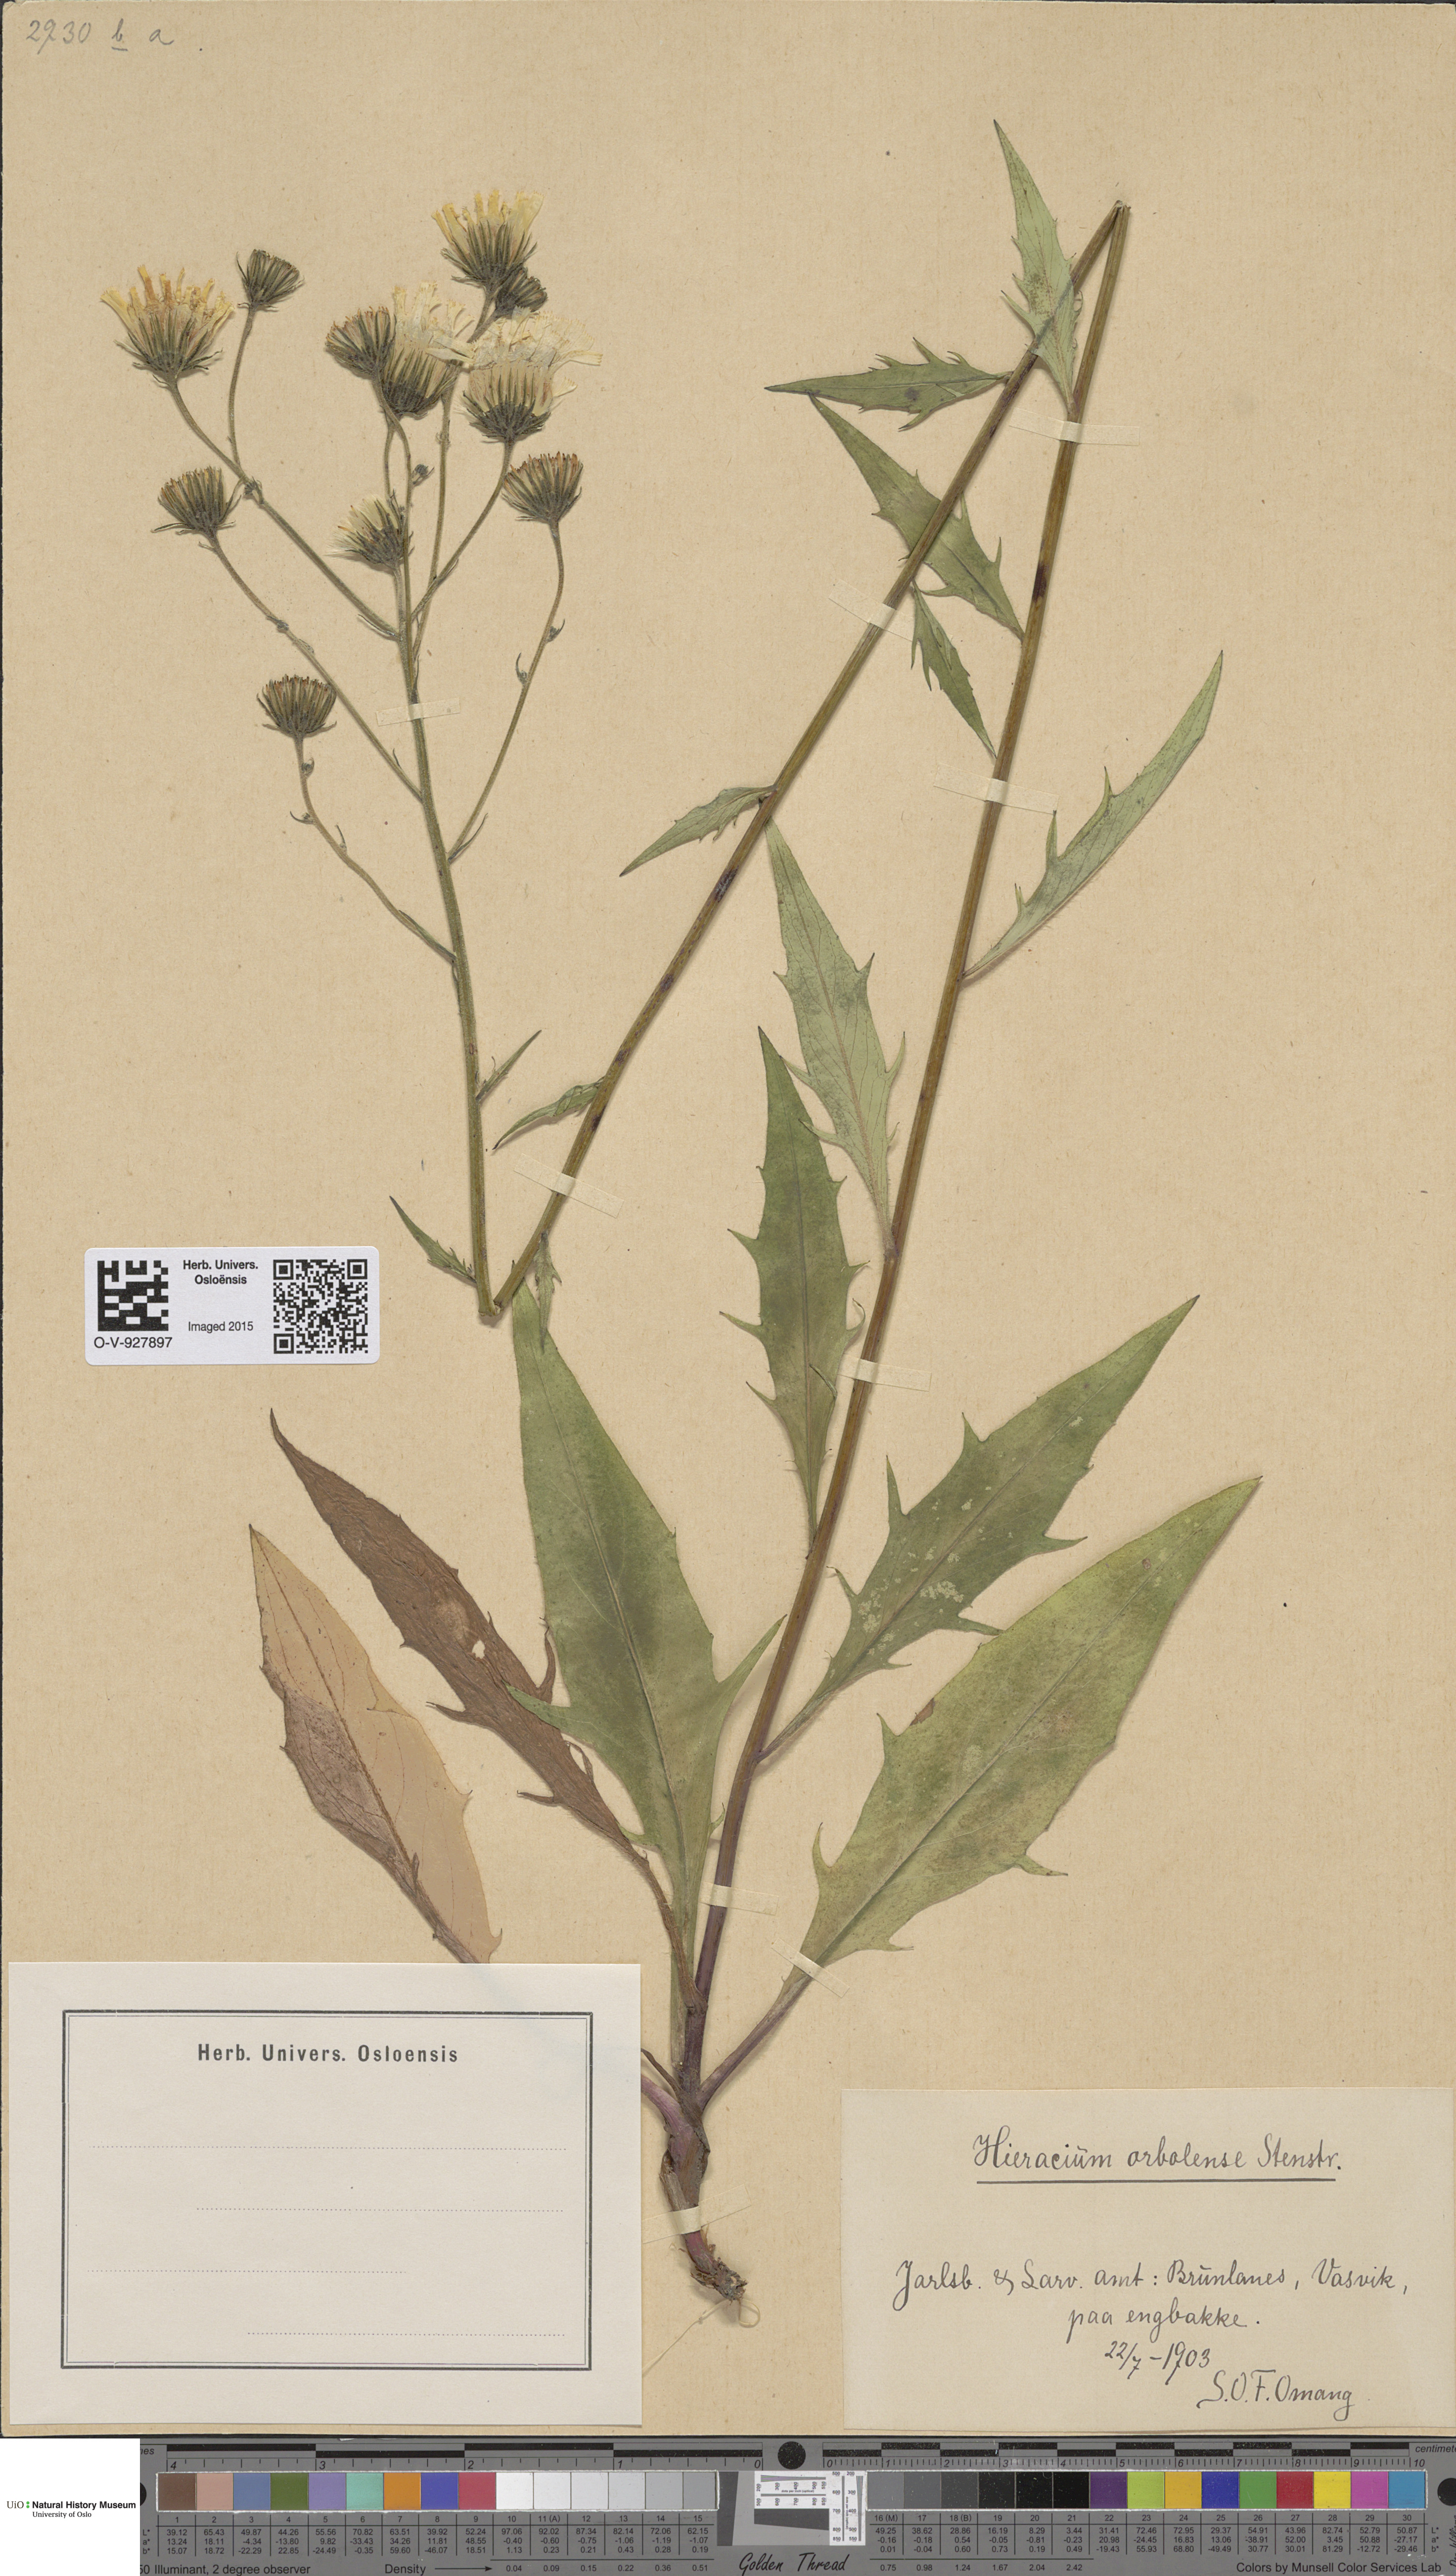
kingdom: Plantae
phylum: Tracheophyta
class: Magnoliopsida
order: Asterales
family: Asteraceae
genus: Hieracium
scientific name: Hieracium orbolense
